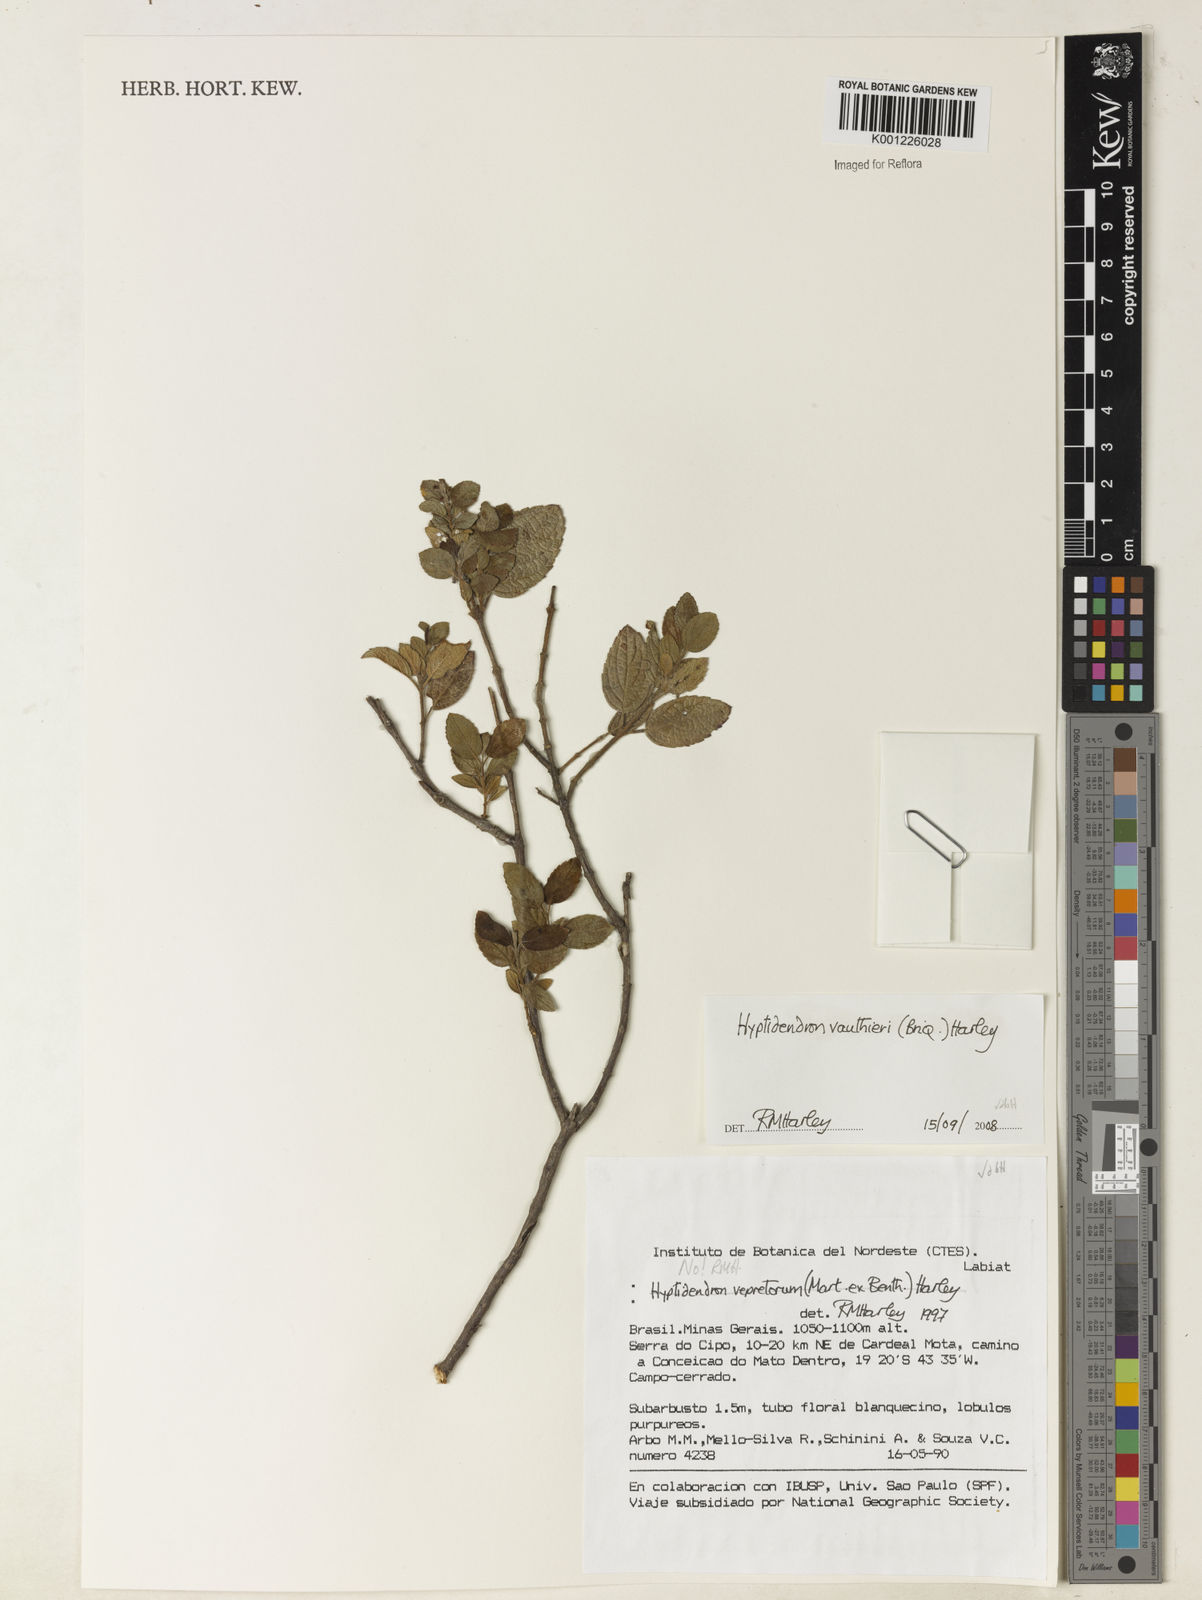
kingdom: Plantae
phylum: Tracheophyta
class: Magnoliopsida
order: Lamiales
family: Lamiaceae
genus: Hyptidendron
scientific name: Hyptidendron vauthieri
